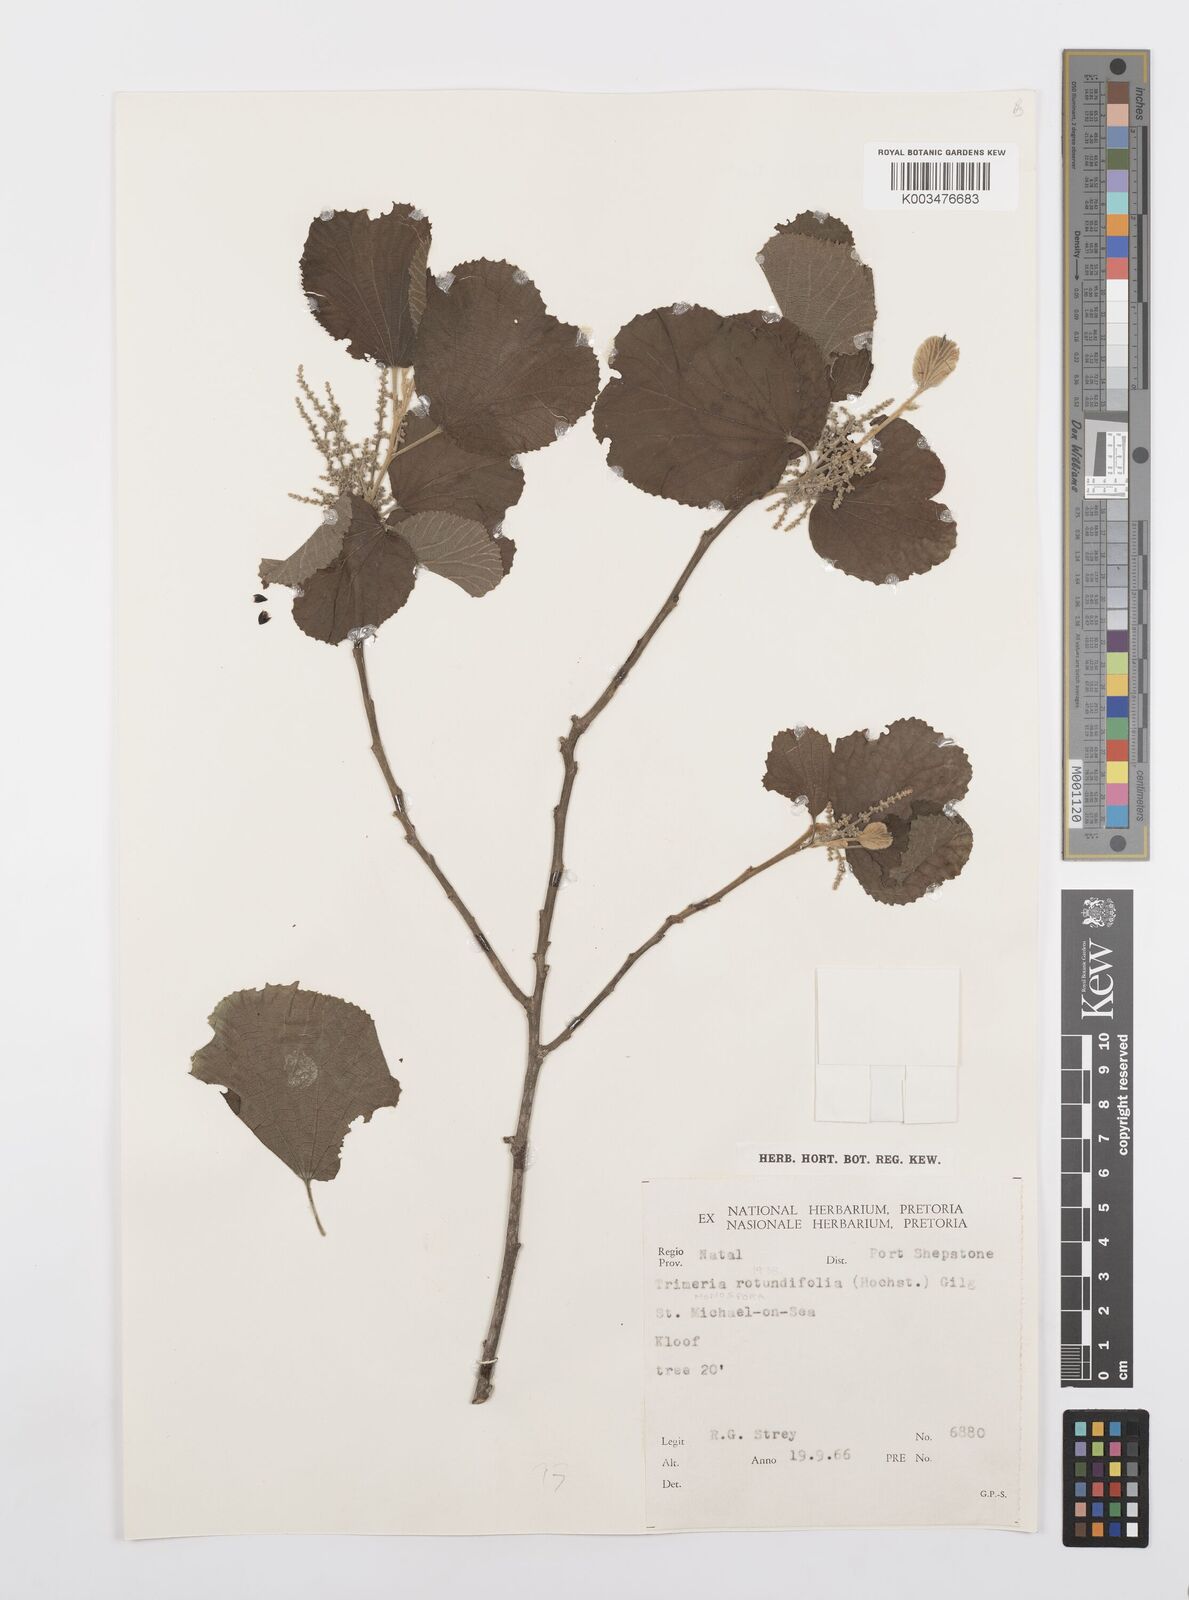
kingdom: Plantae
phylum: Tracheophyta
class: Magnoliopsida
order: Malpighiales
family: Salicaceae
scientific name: Salicaceae
